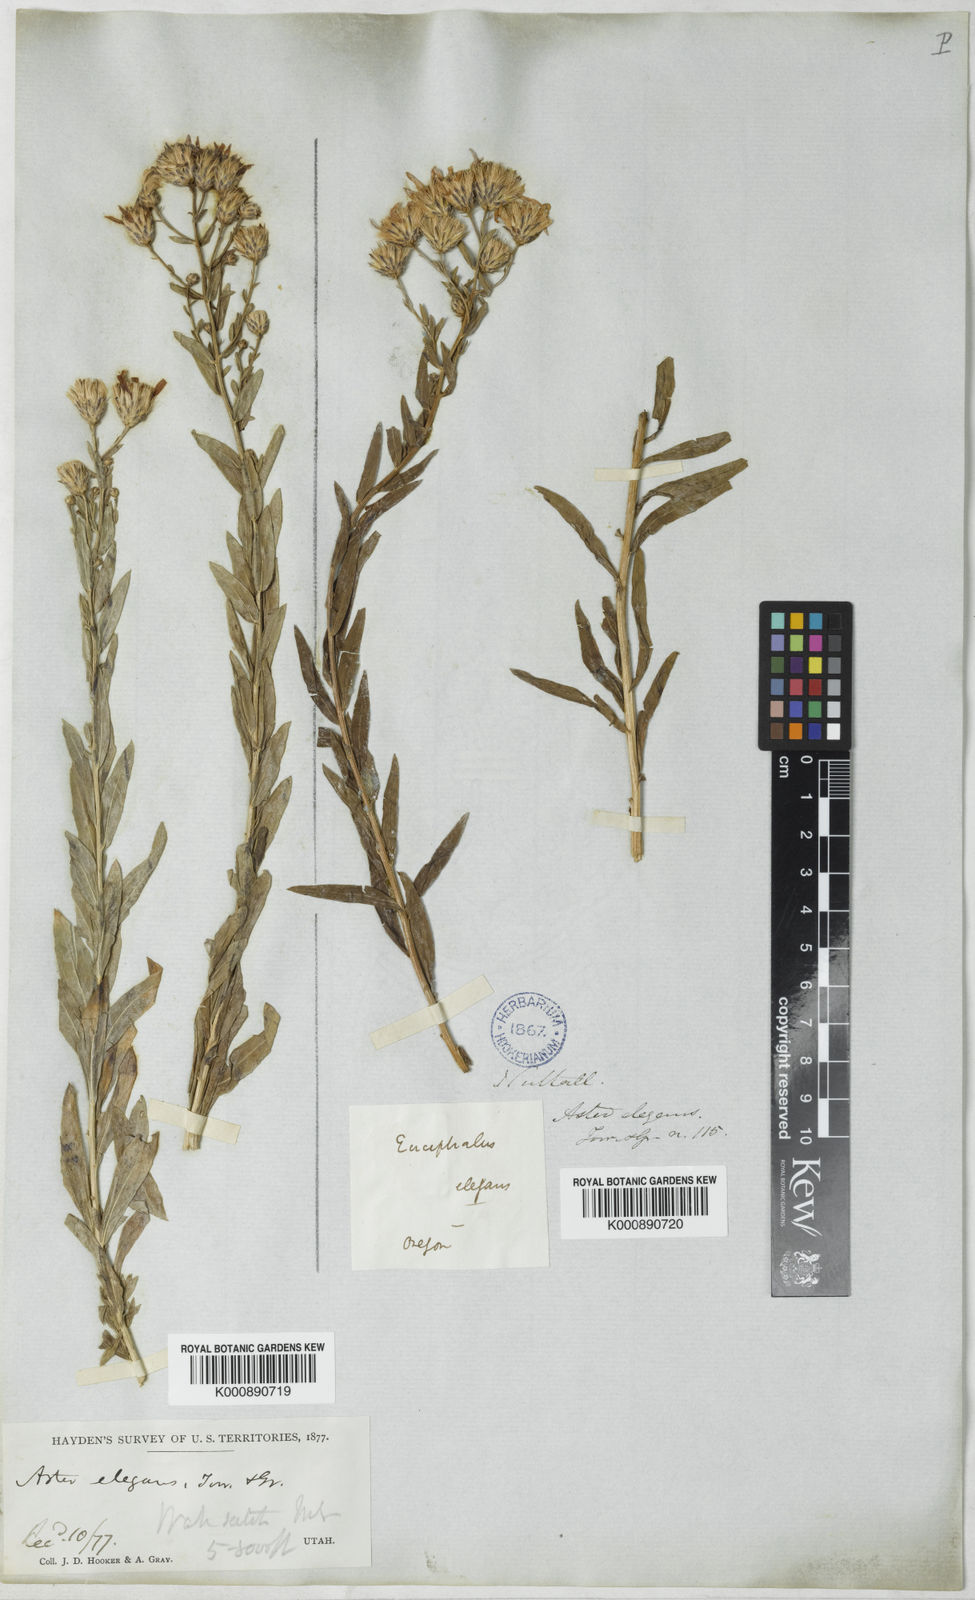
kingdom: Plantae
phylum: Tracheophyta
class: Magnoliopsida
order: Asterales
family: Asteraceae
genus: Aster
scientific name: Aster
